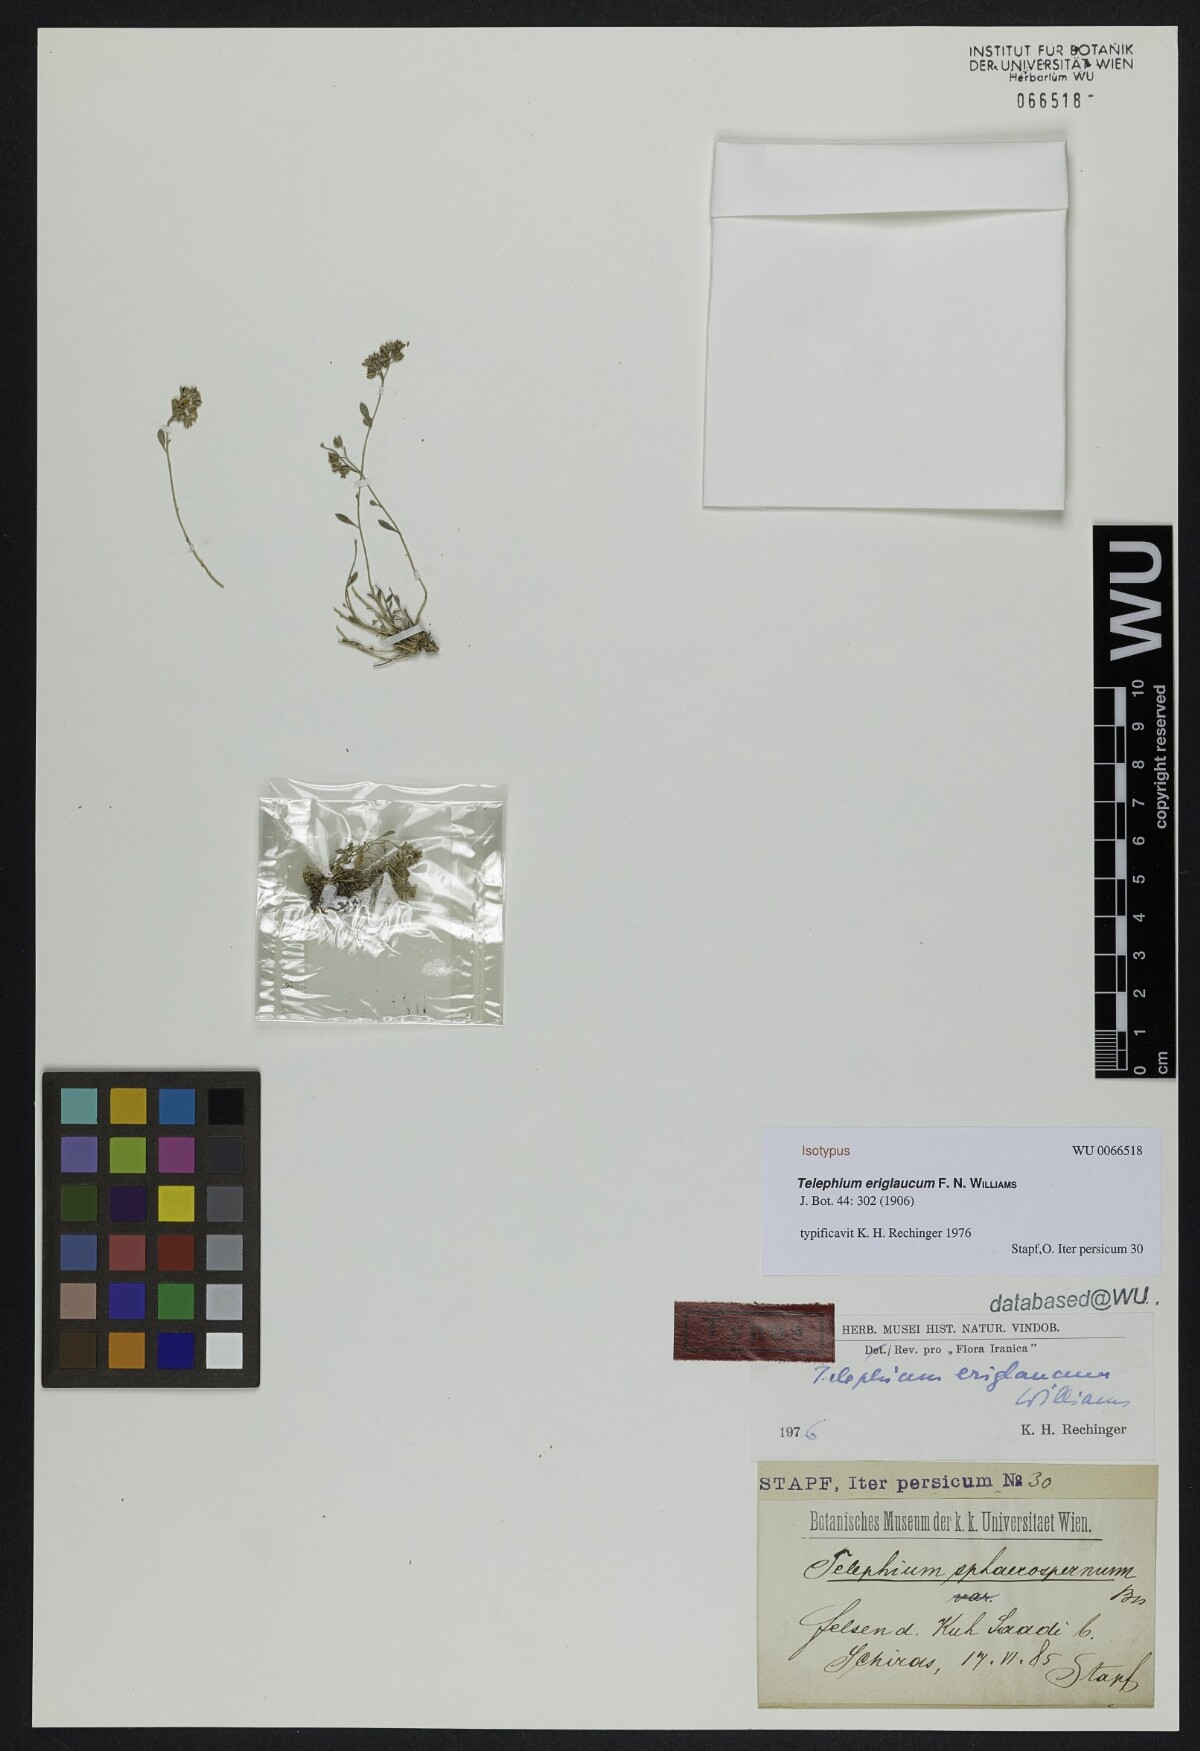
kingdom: Plantae
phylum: Tracheophyta
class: Magnoliopsida
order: Caryophyllales
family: Caryophyllaceae
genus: Telephium
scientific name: Telephium eriglaucum
